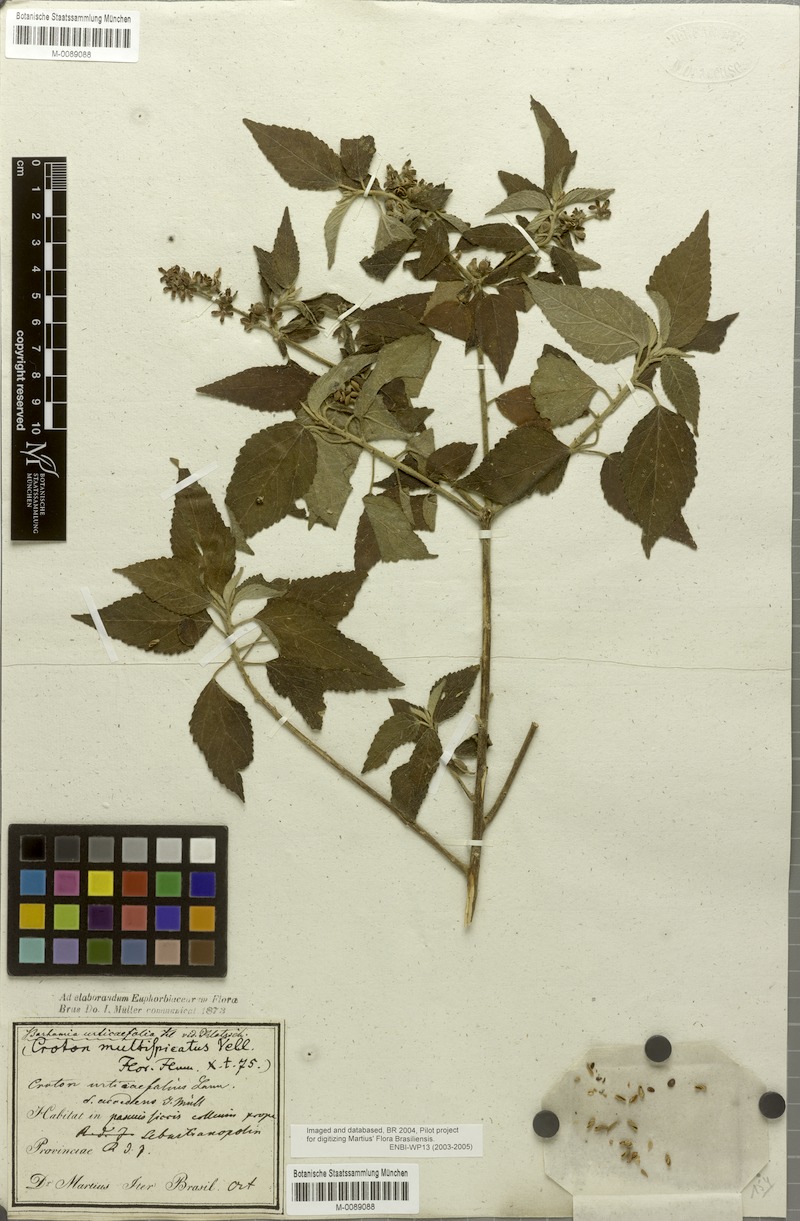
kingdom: Plantae
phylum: Tracheophyta
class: Magnoliopsida
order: Malpighiales
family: Euphorbiaceae
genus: Croton
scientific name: Croton urticifolius
